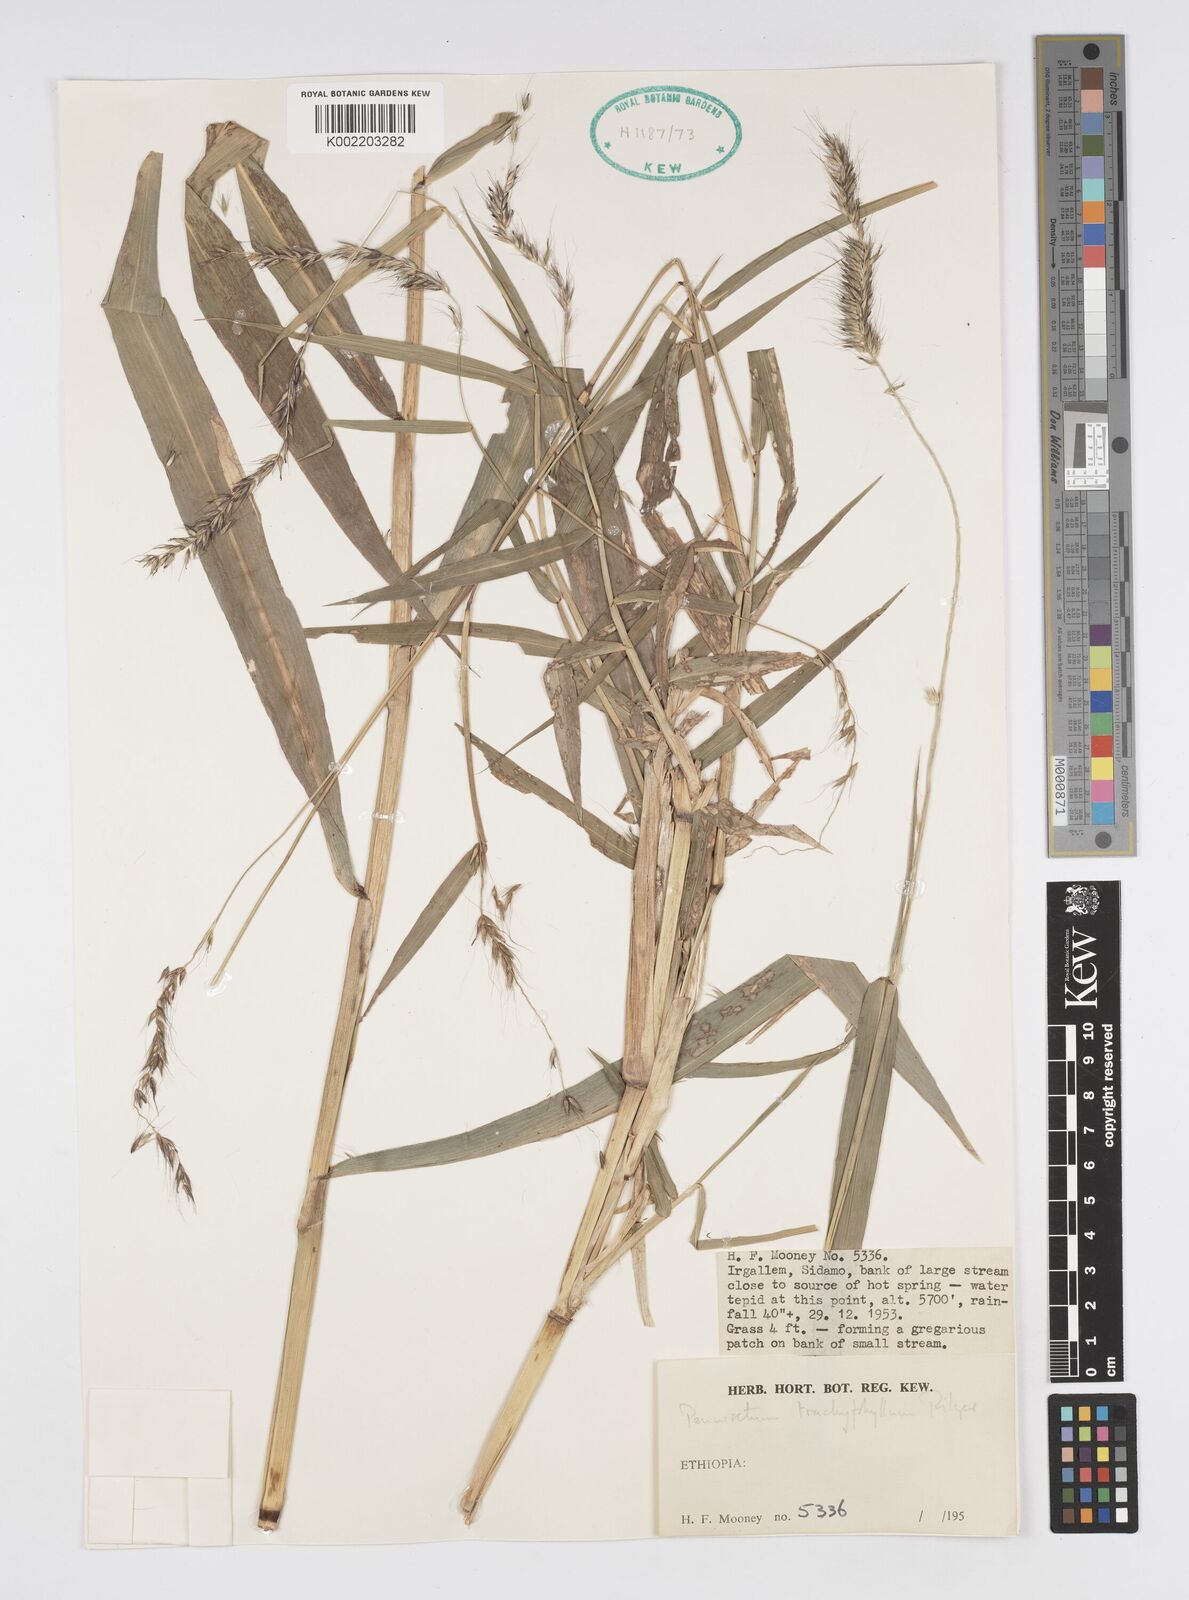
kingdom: Plantae
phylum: Tracheophyta
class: Liliopsida
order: Poales
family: Poaceae
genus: Cenchrus
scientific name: Cenchrus trachyphyllus
